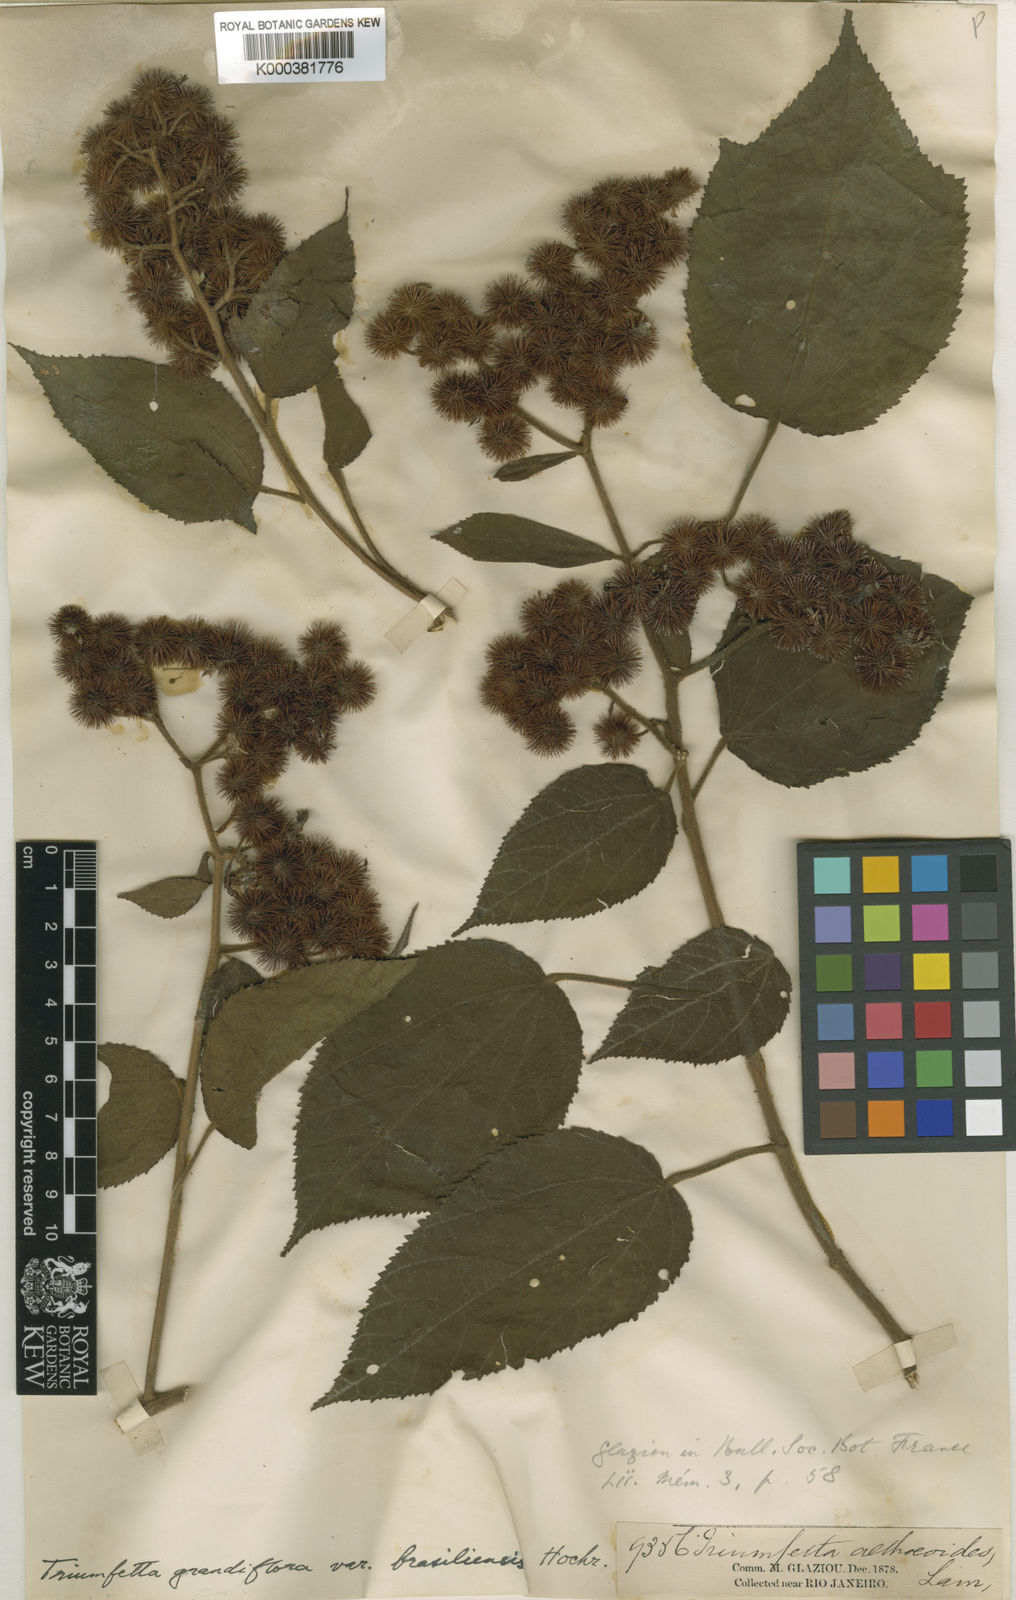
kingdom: Plantae
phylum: Tracheophyta
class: Magnoliopsida
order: Malvales
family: Malvaceae
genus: Triumfetta
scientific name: Triumfetta grandiflora
